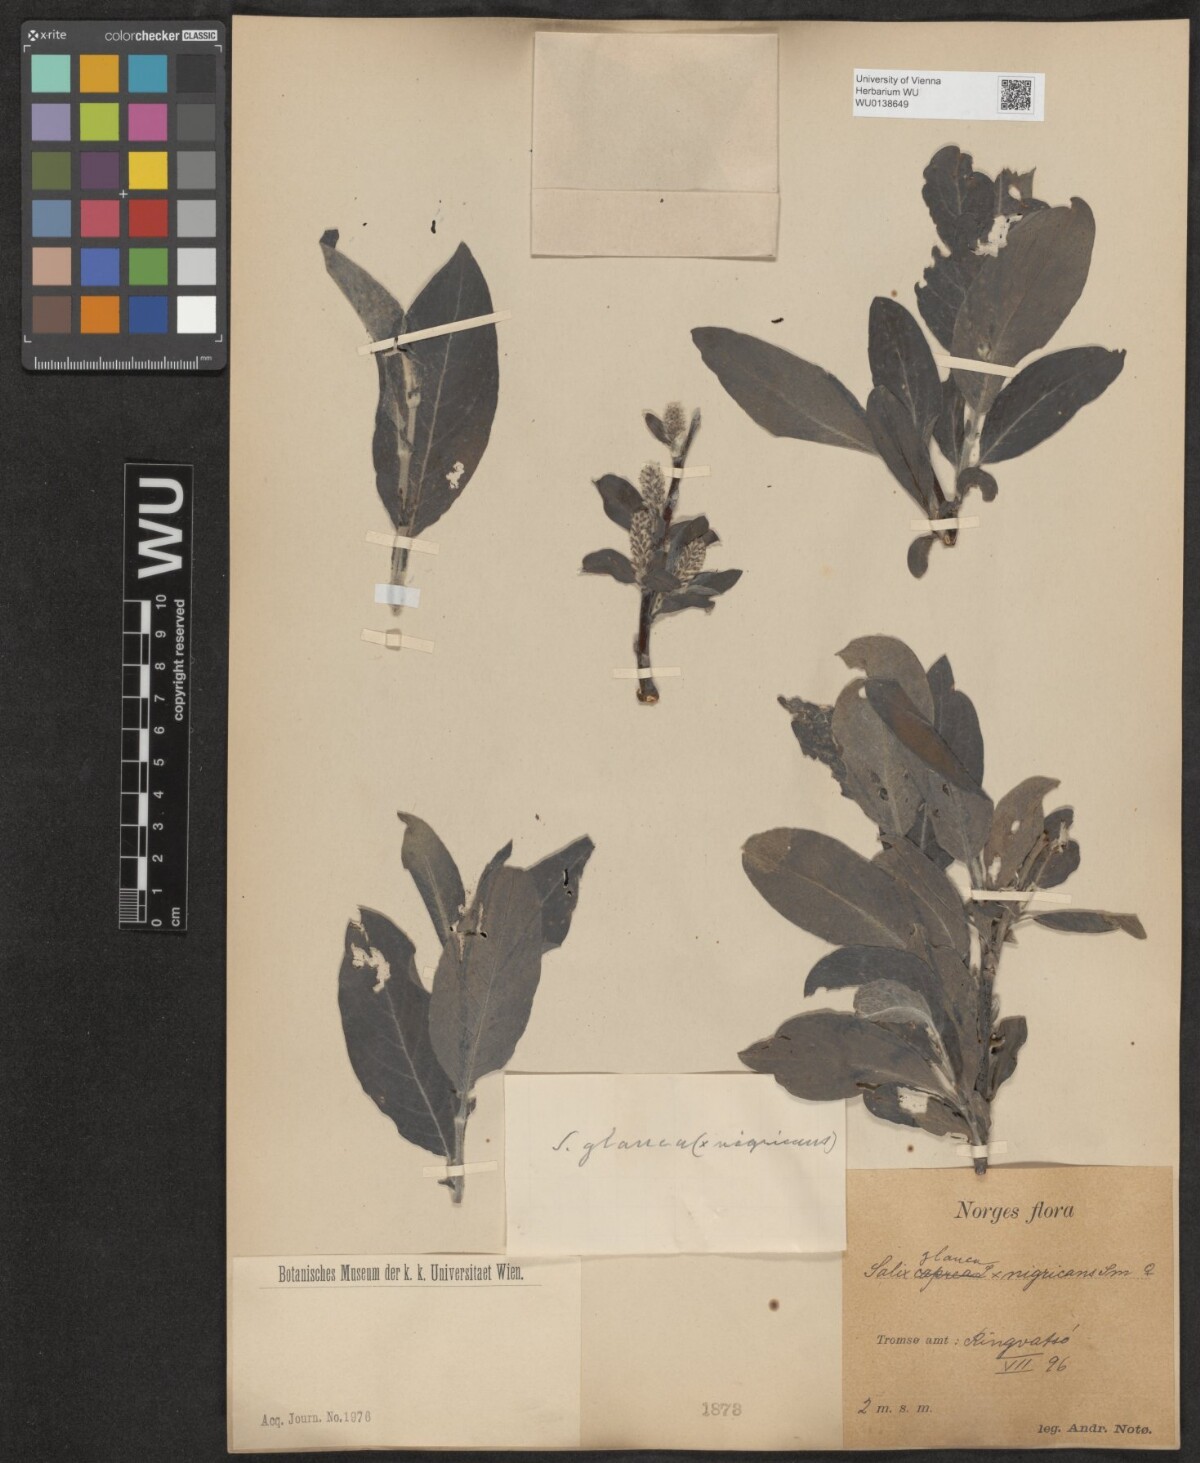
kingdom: Plantae
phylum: Tracheophyta
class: Magnoliopsida
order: Malpighiales
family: Salicaceae
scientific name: Salicaceae
